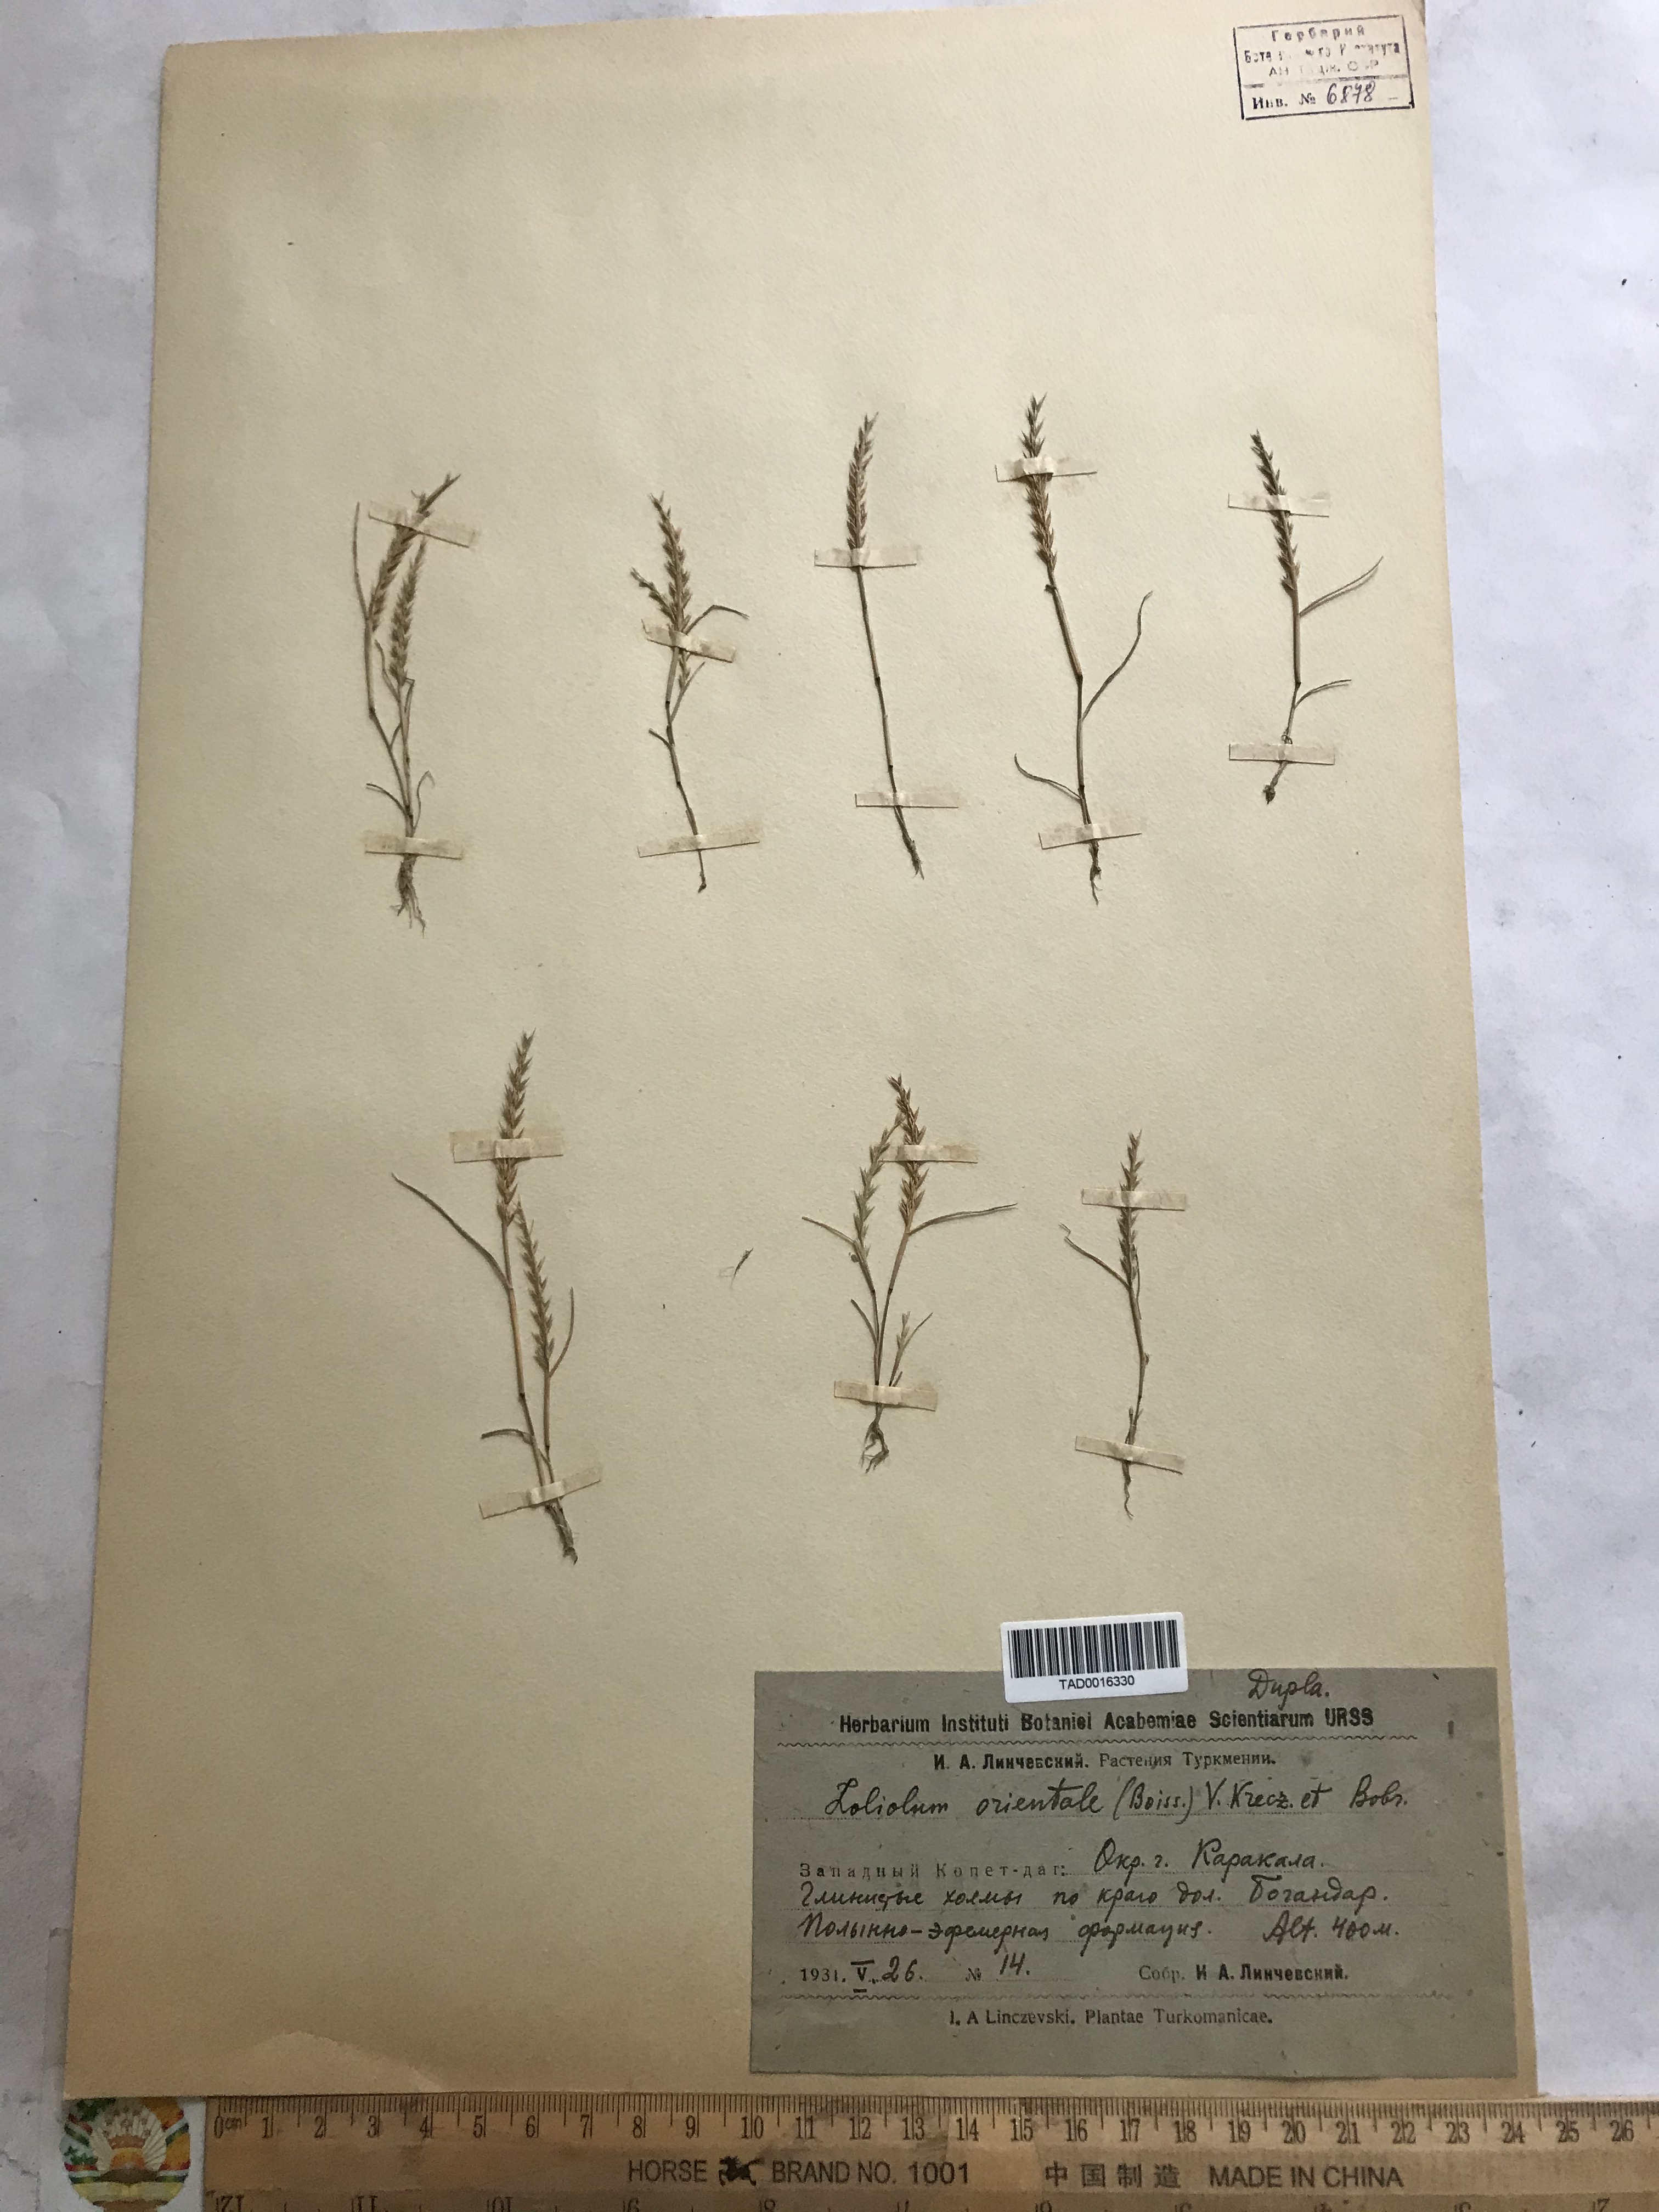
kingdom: Plantae
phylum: Tracheophyta
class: Liliopsida
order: Poales
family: Poaceae
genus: Festuca
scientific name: Festuca orientalis
